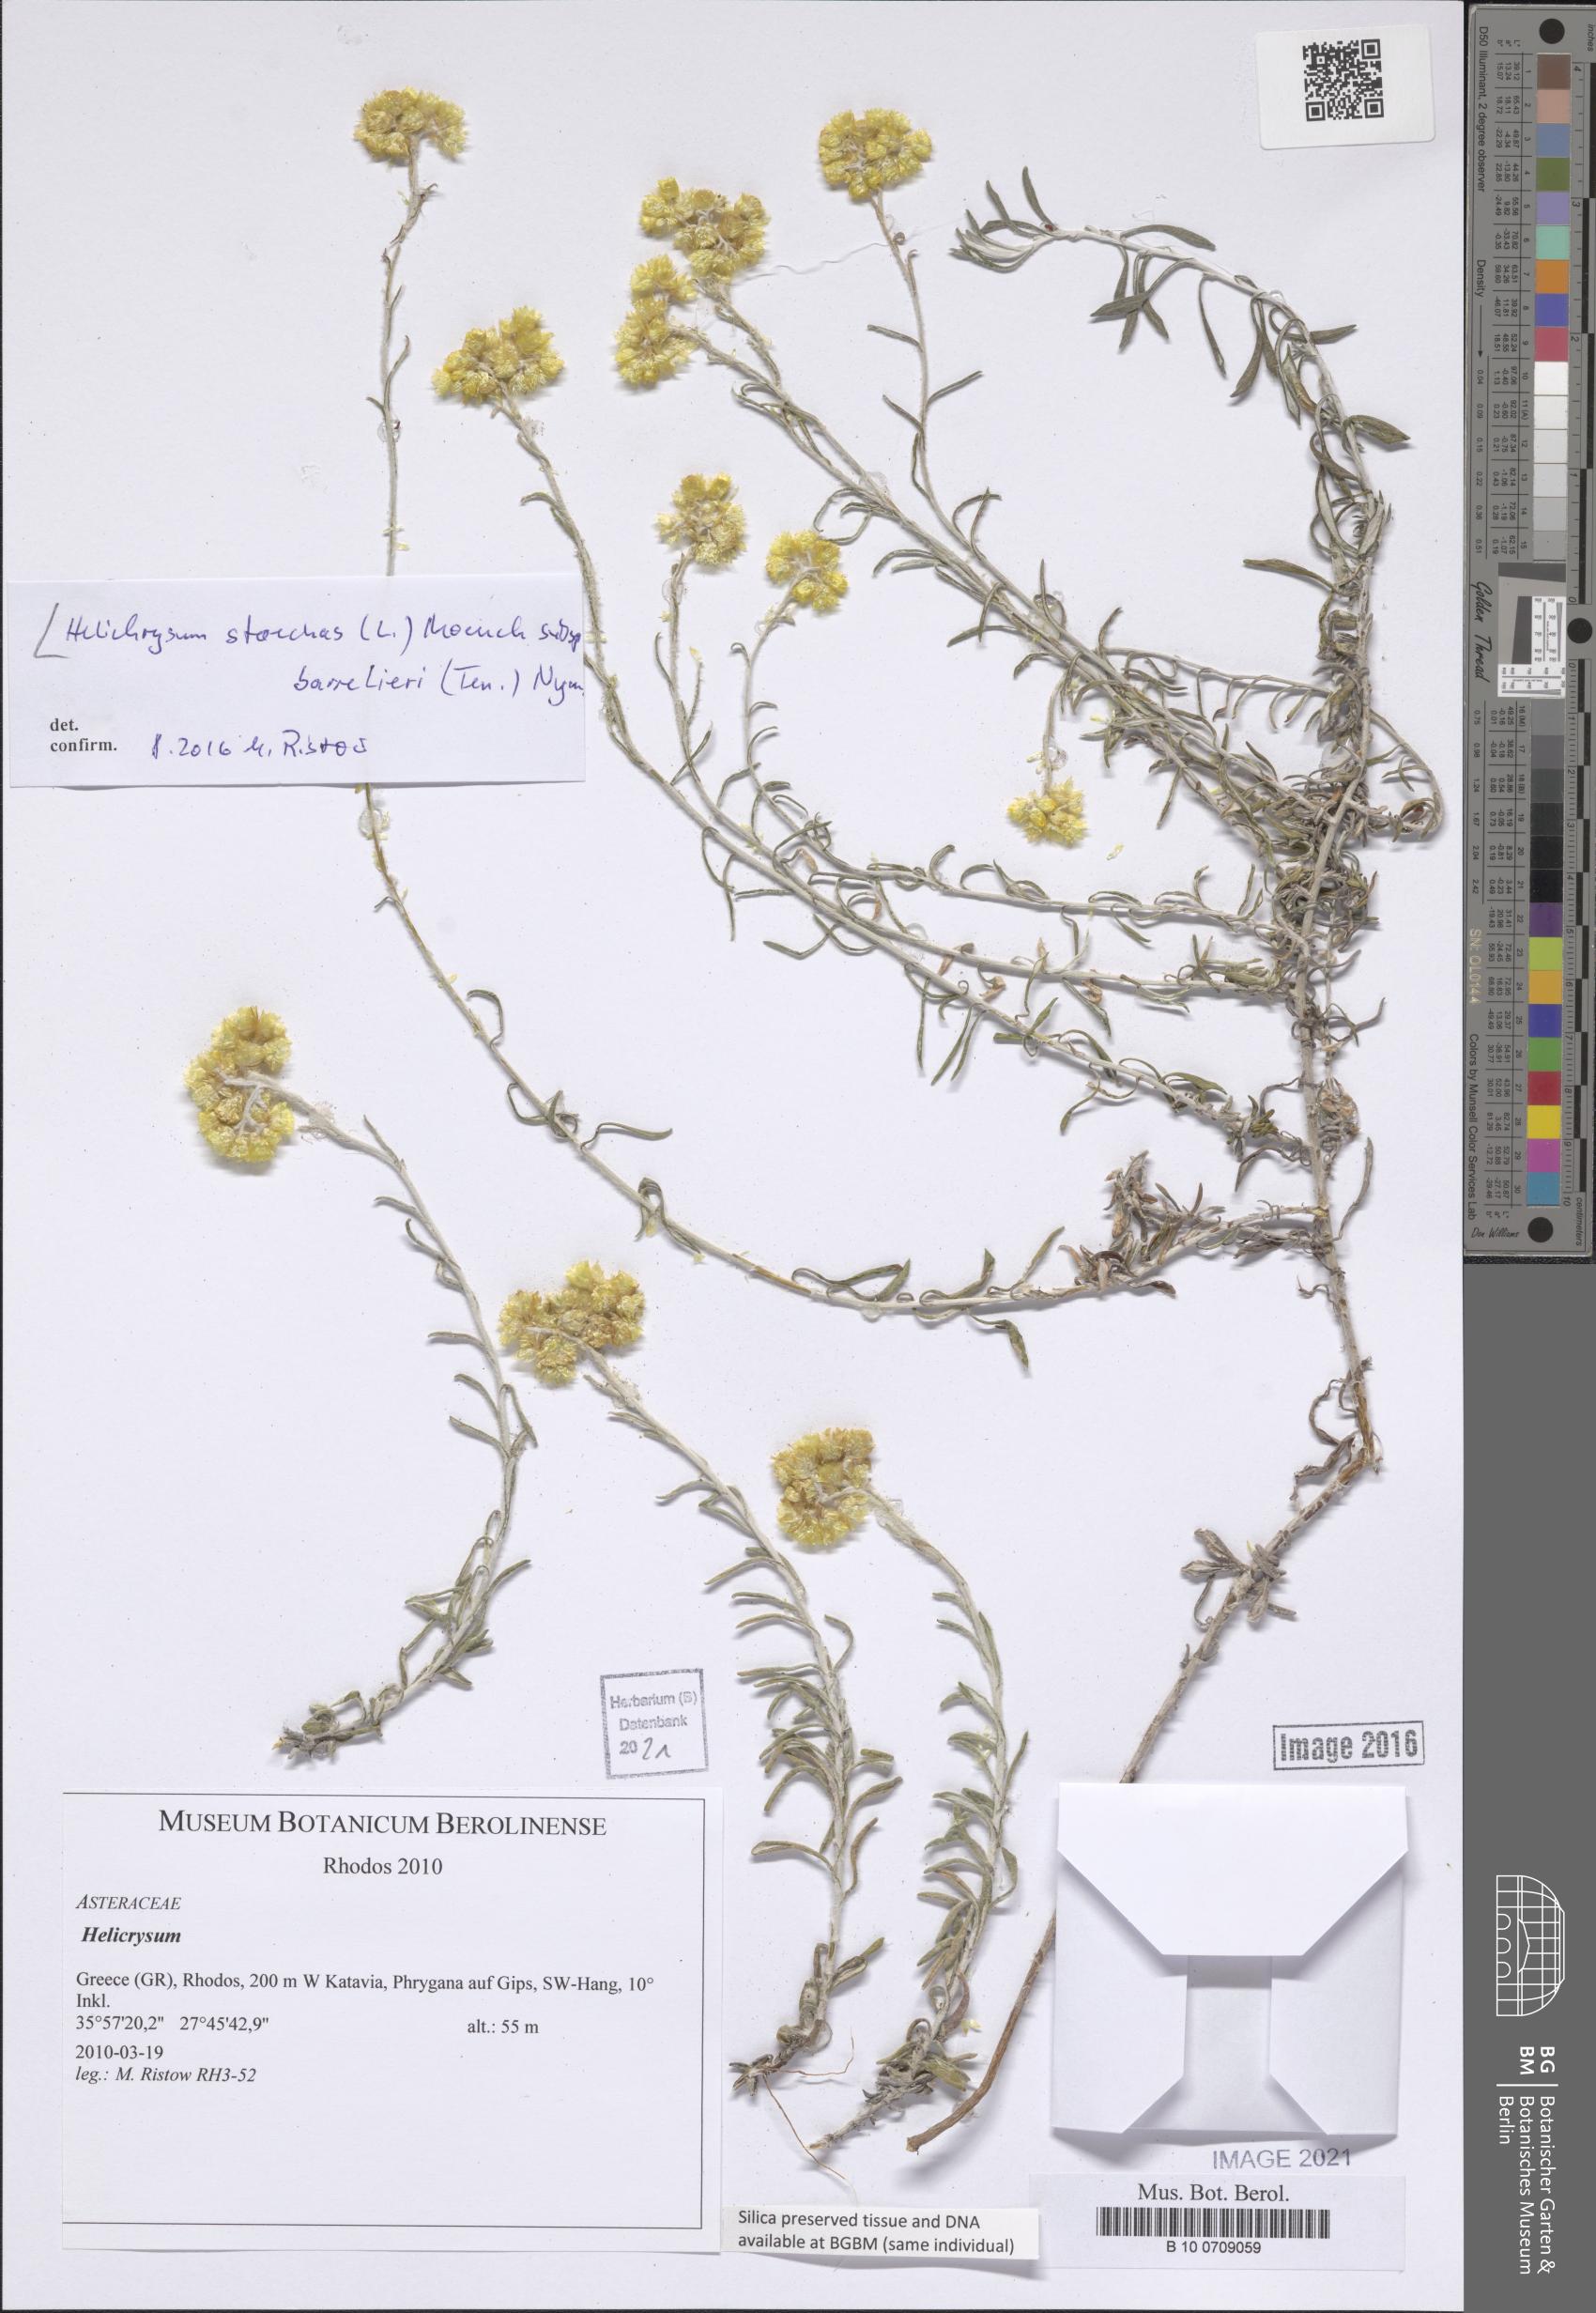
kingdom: Plantae
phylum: Tracheophyta
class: Magnoliopsida
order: Asterales
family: Asteraceae
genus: Centaurea
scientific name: Centaurea
